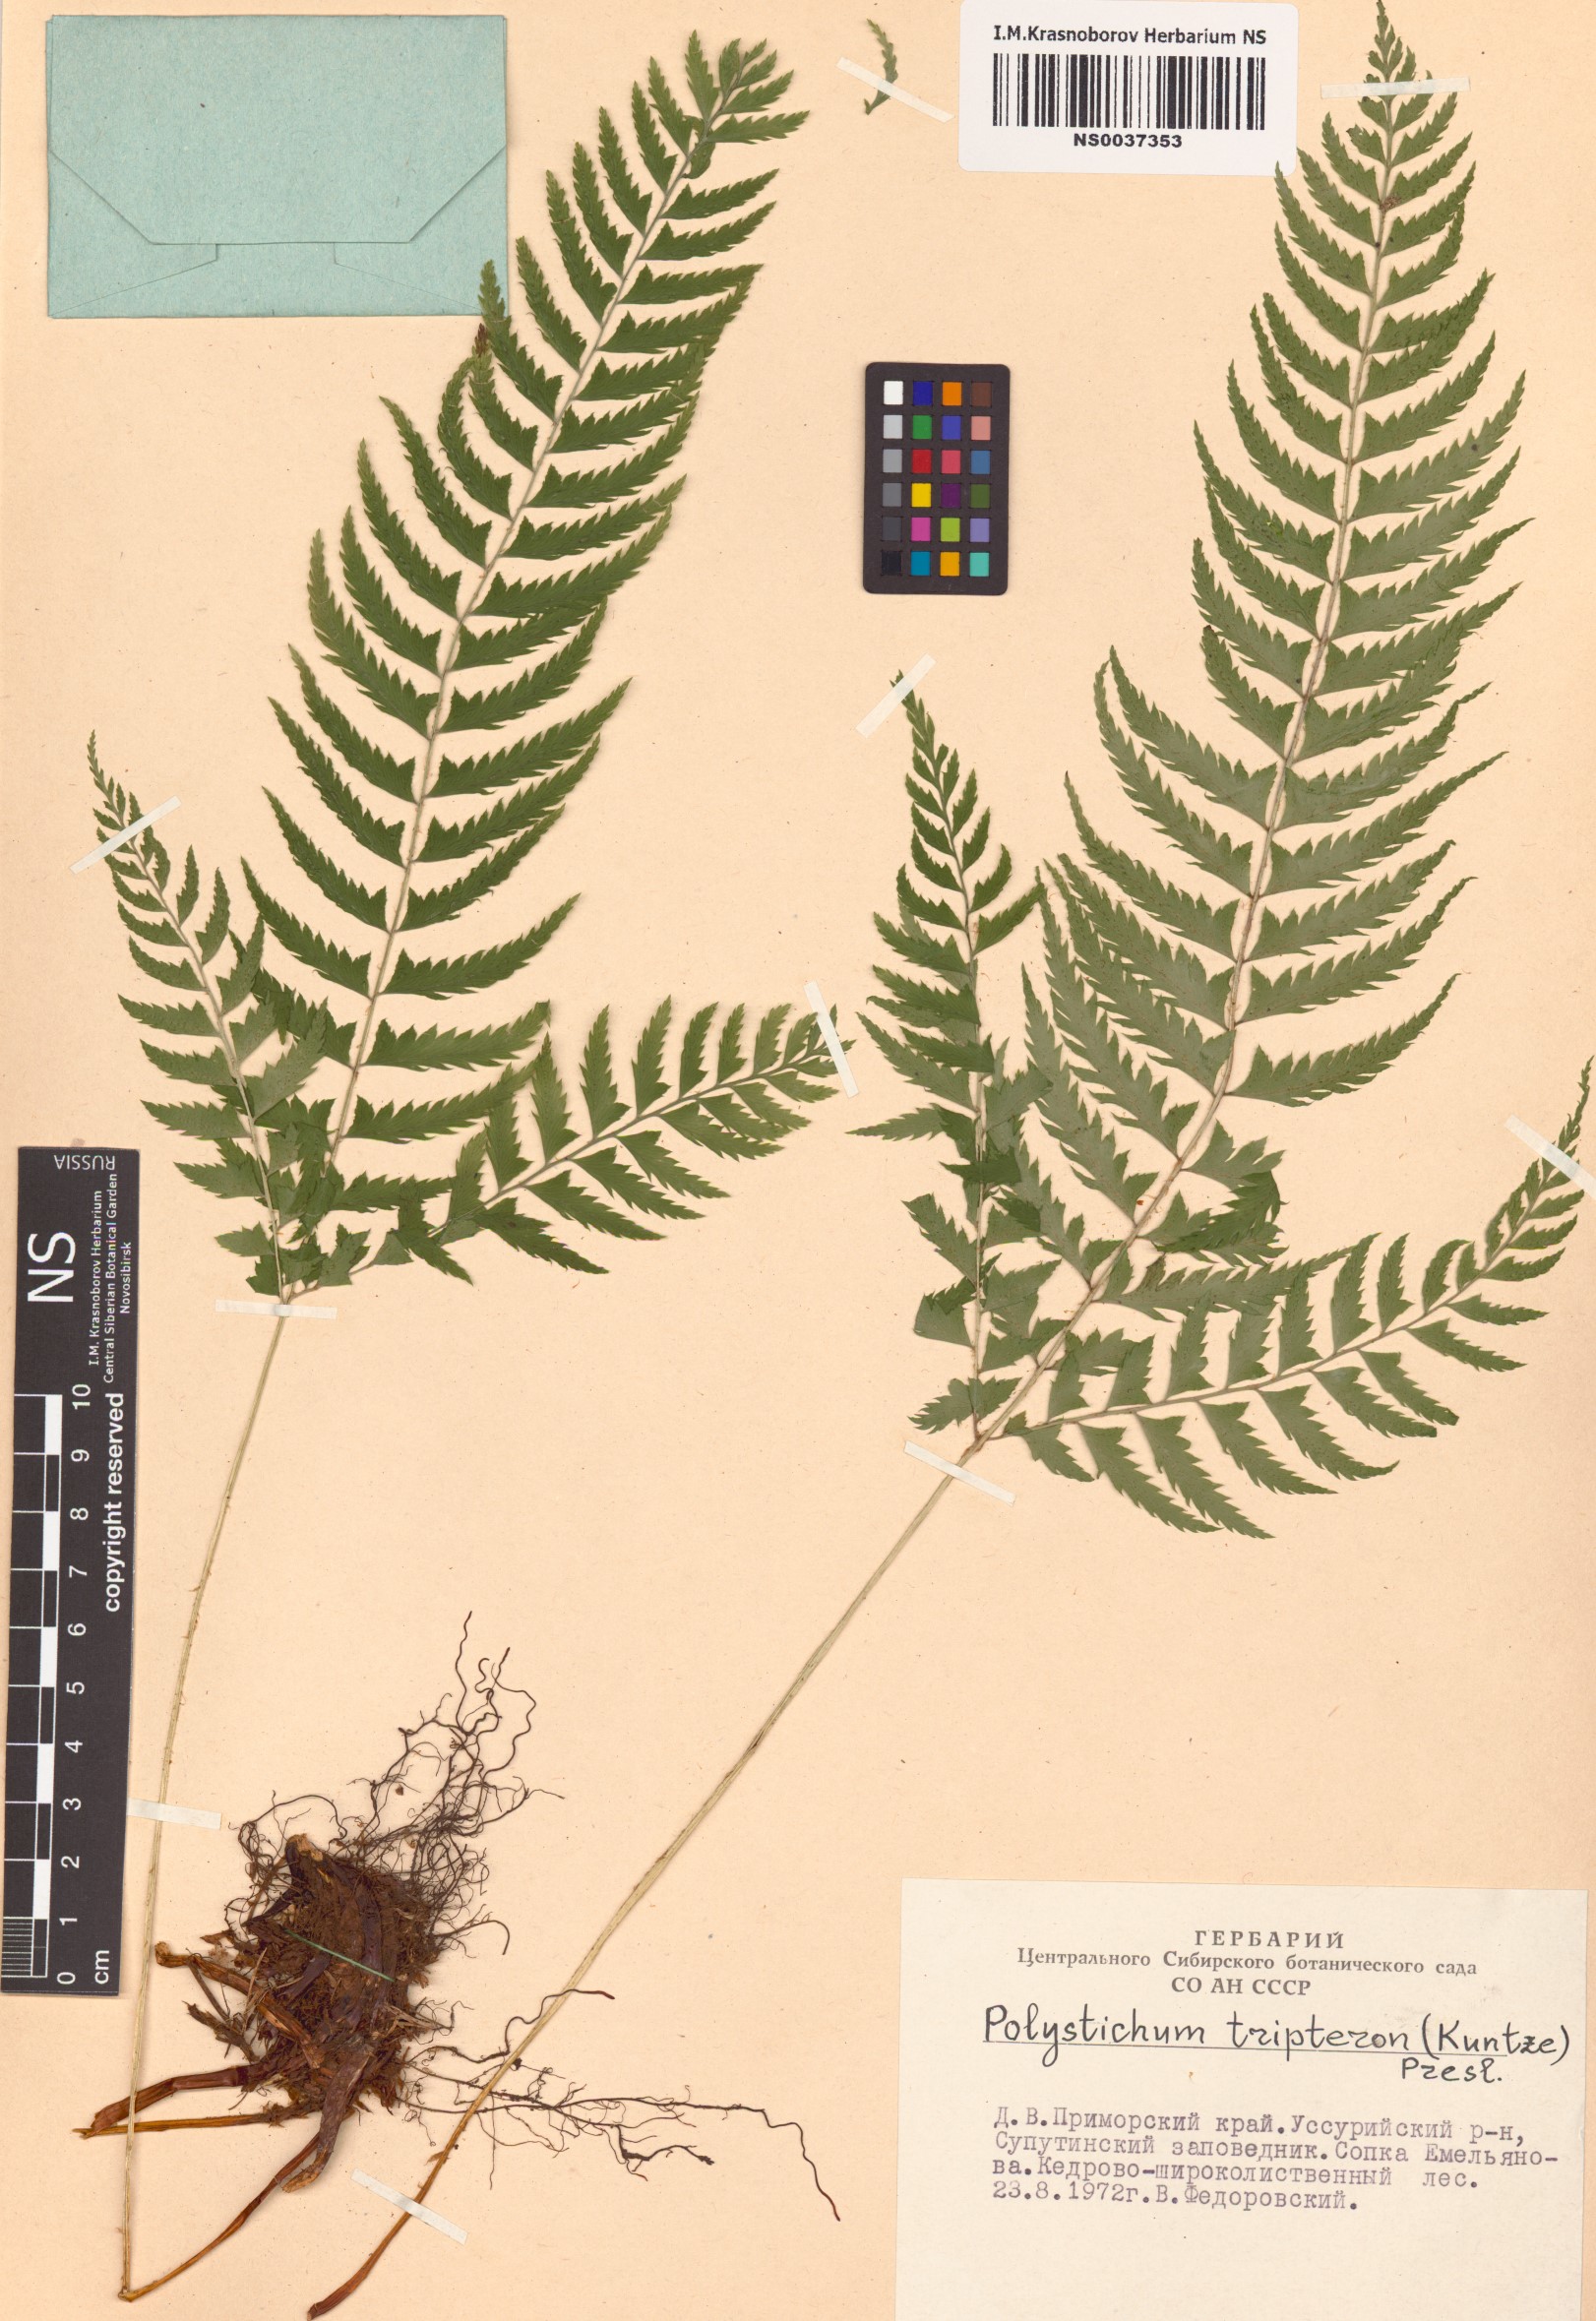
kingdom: Plantae
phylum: Tracheophyta
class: Polypodiopsida
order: Polypodiales
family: Dryopteridaceae
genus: Polystichum
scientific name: Polystichum tripteron
